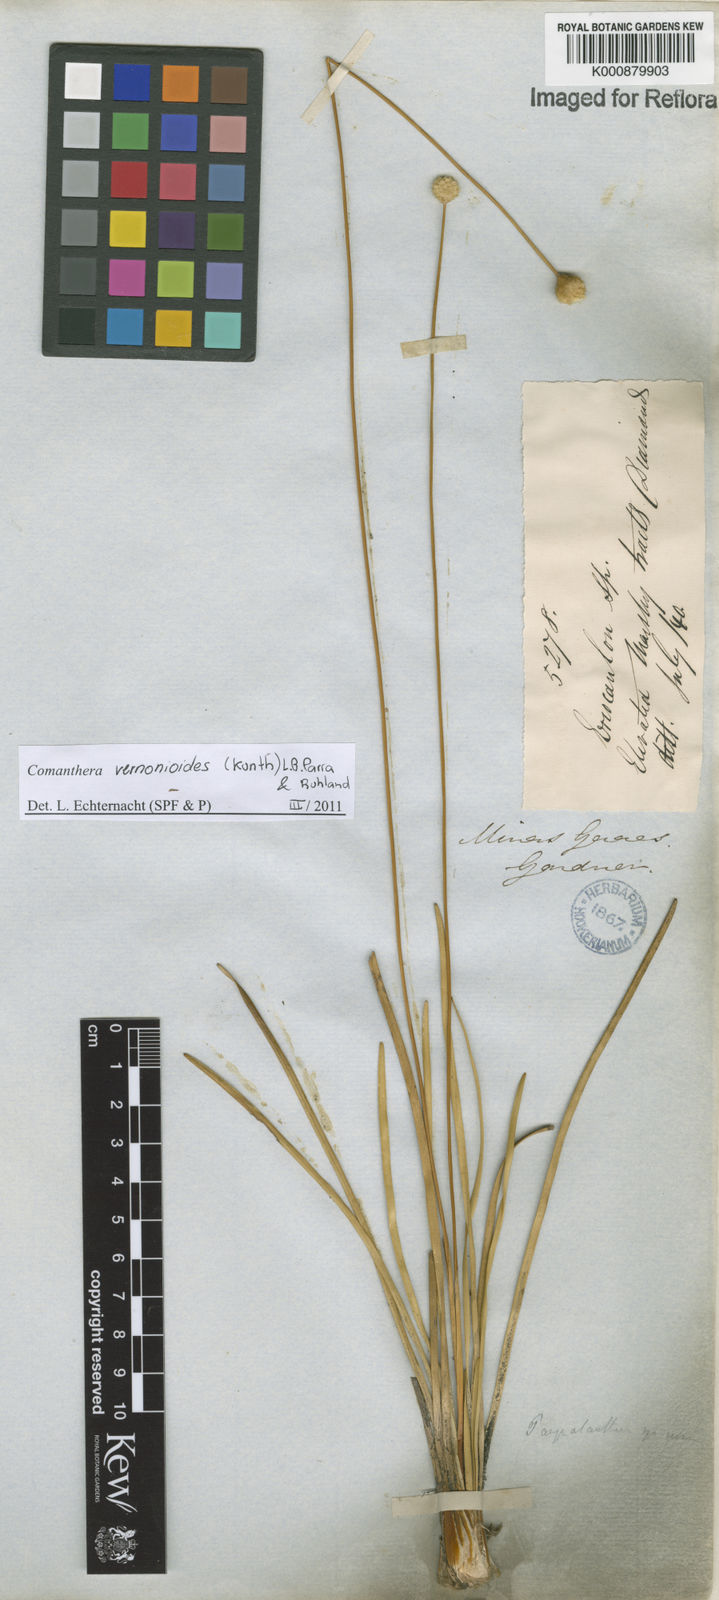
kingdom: Plantae
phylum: Tracheophyta
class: Liliopsida
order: Poales
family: Eriocaulaceae
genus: Comanthera
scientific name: Comanthera centauroides
